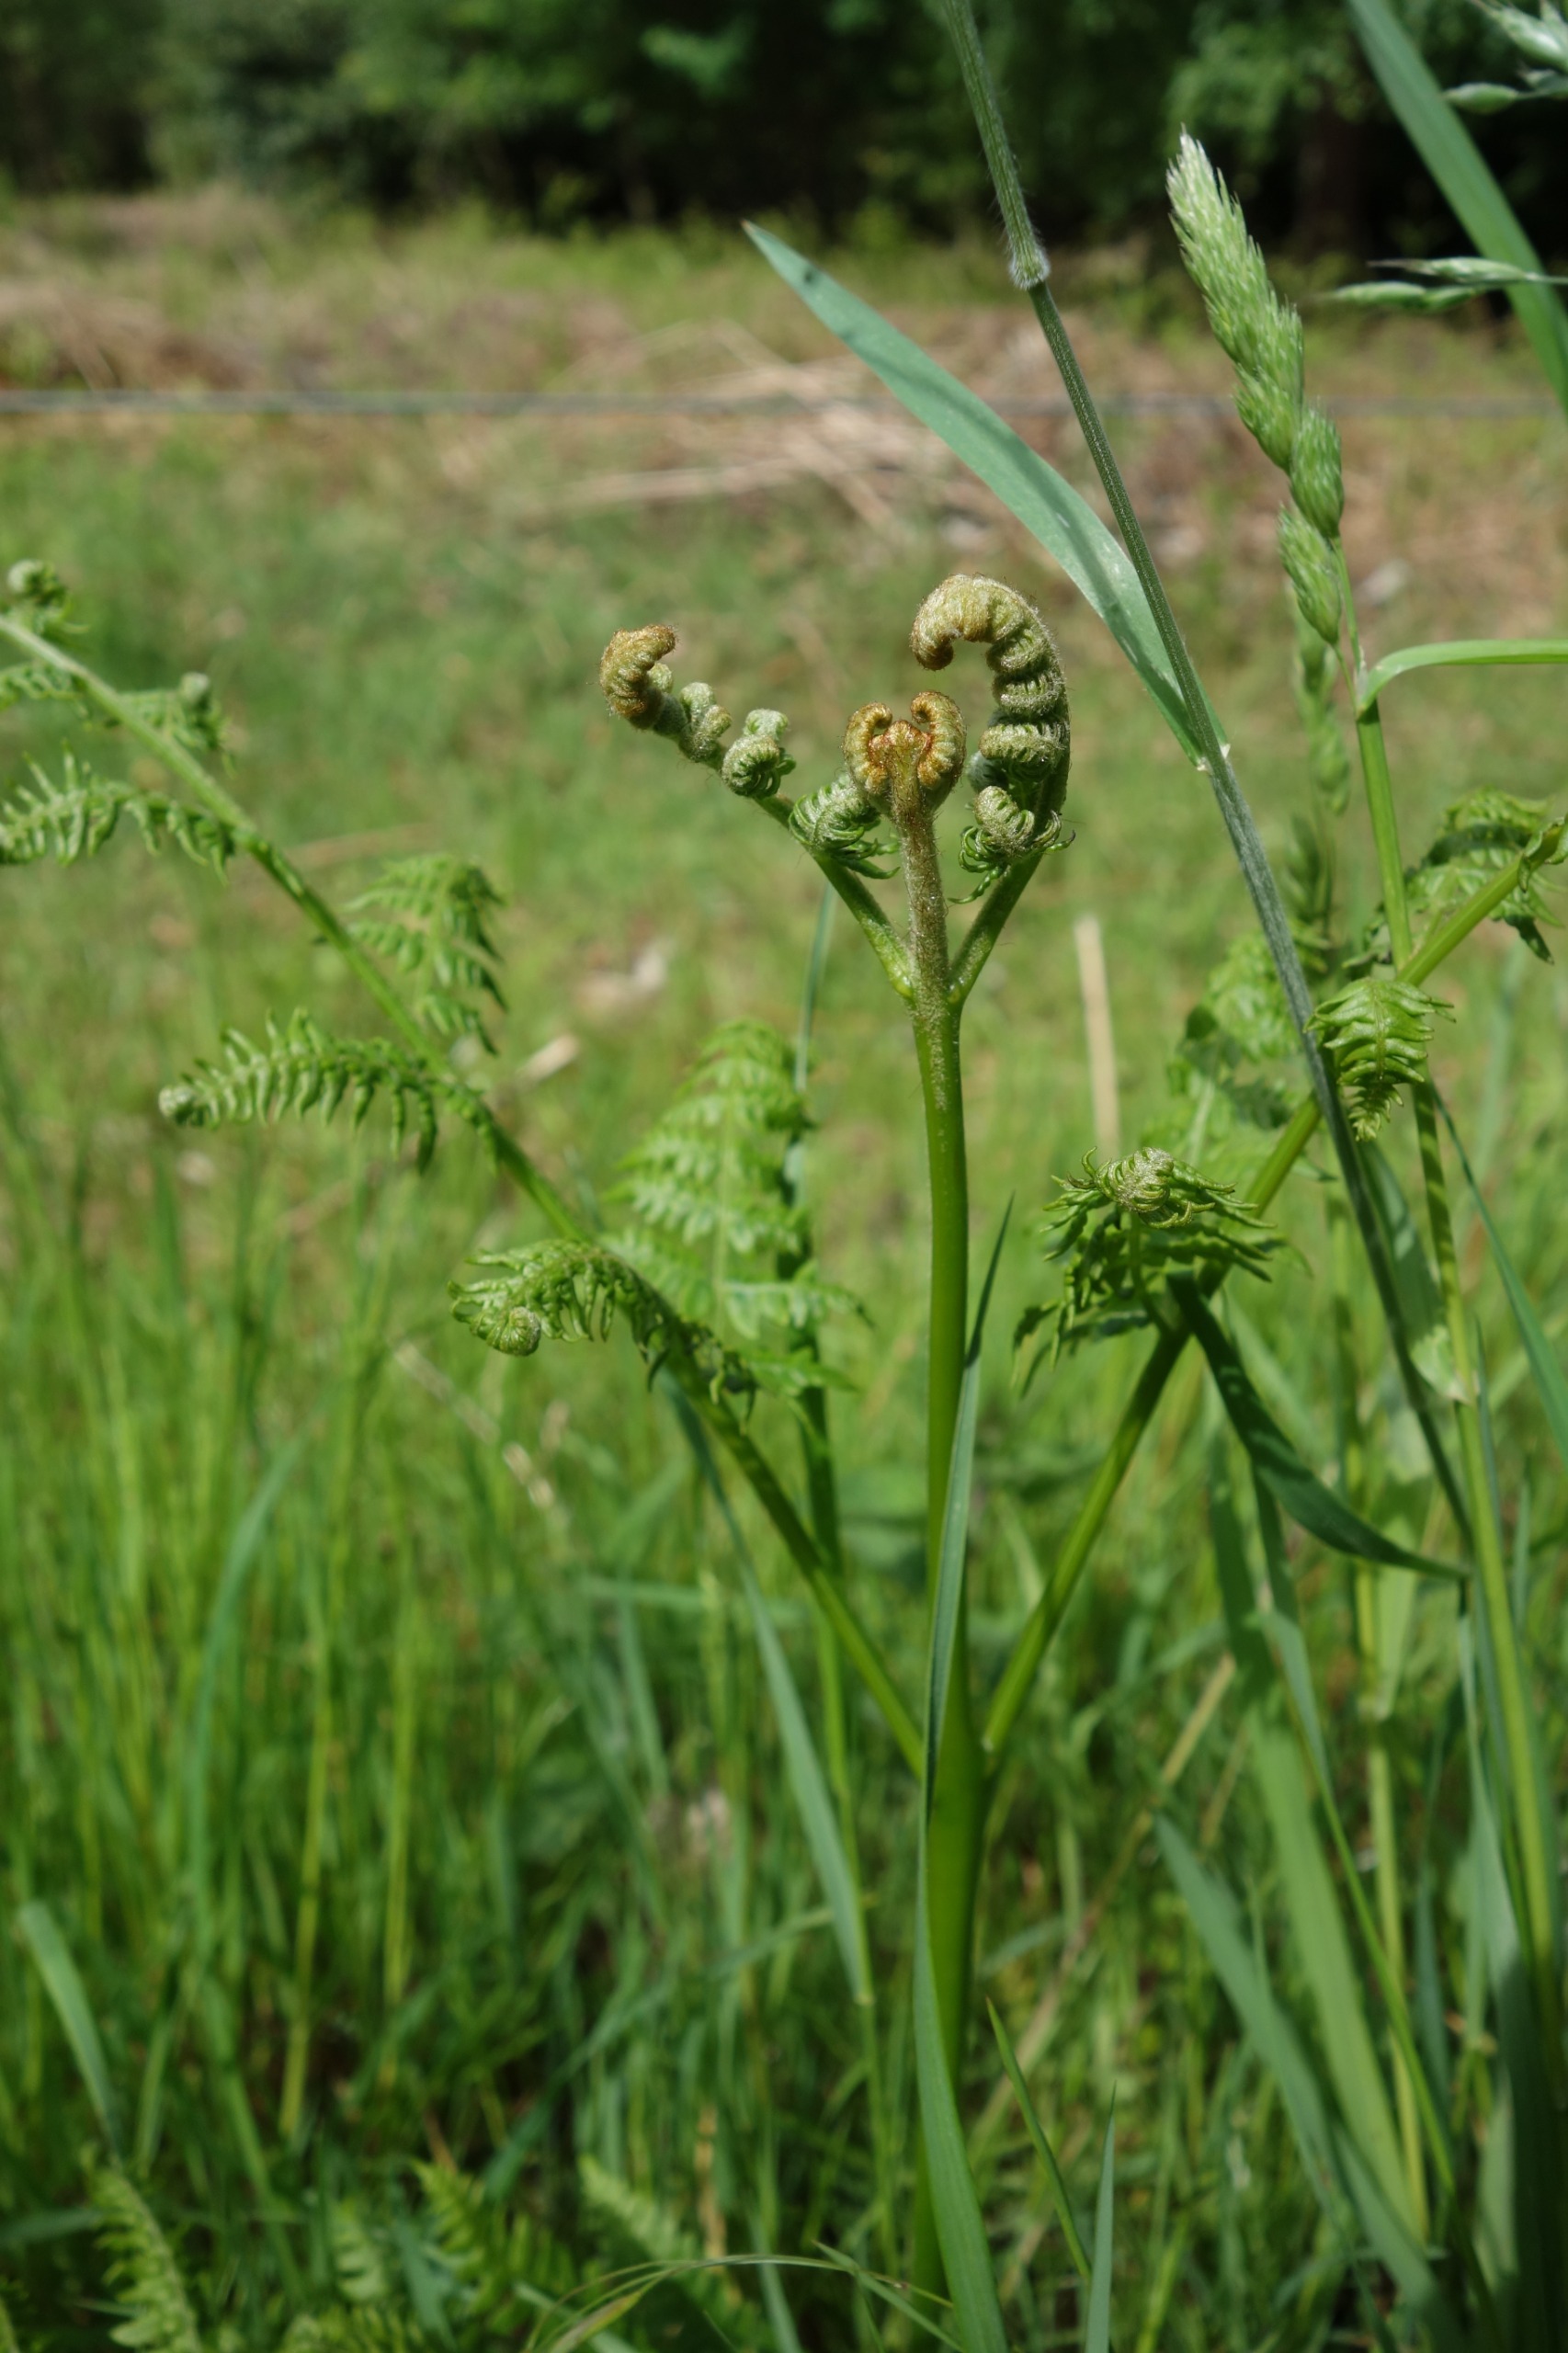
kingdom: Plantae
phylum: Tracheophyta
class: Polypodiopsida
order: Polypodiales
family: Dennstaedtiaceae
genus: Pteridium
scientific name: Pteridium aquilinum
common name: Ørnebregne
